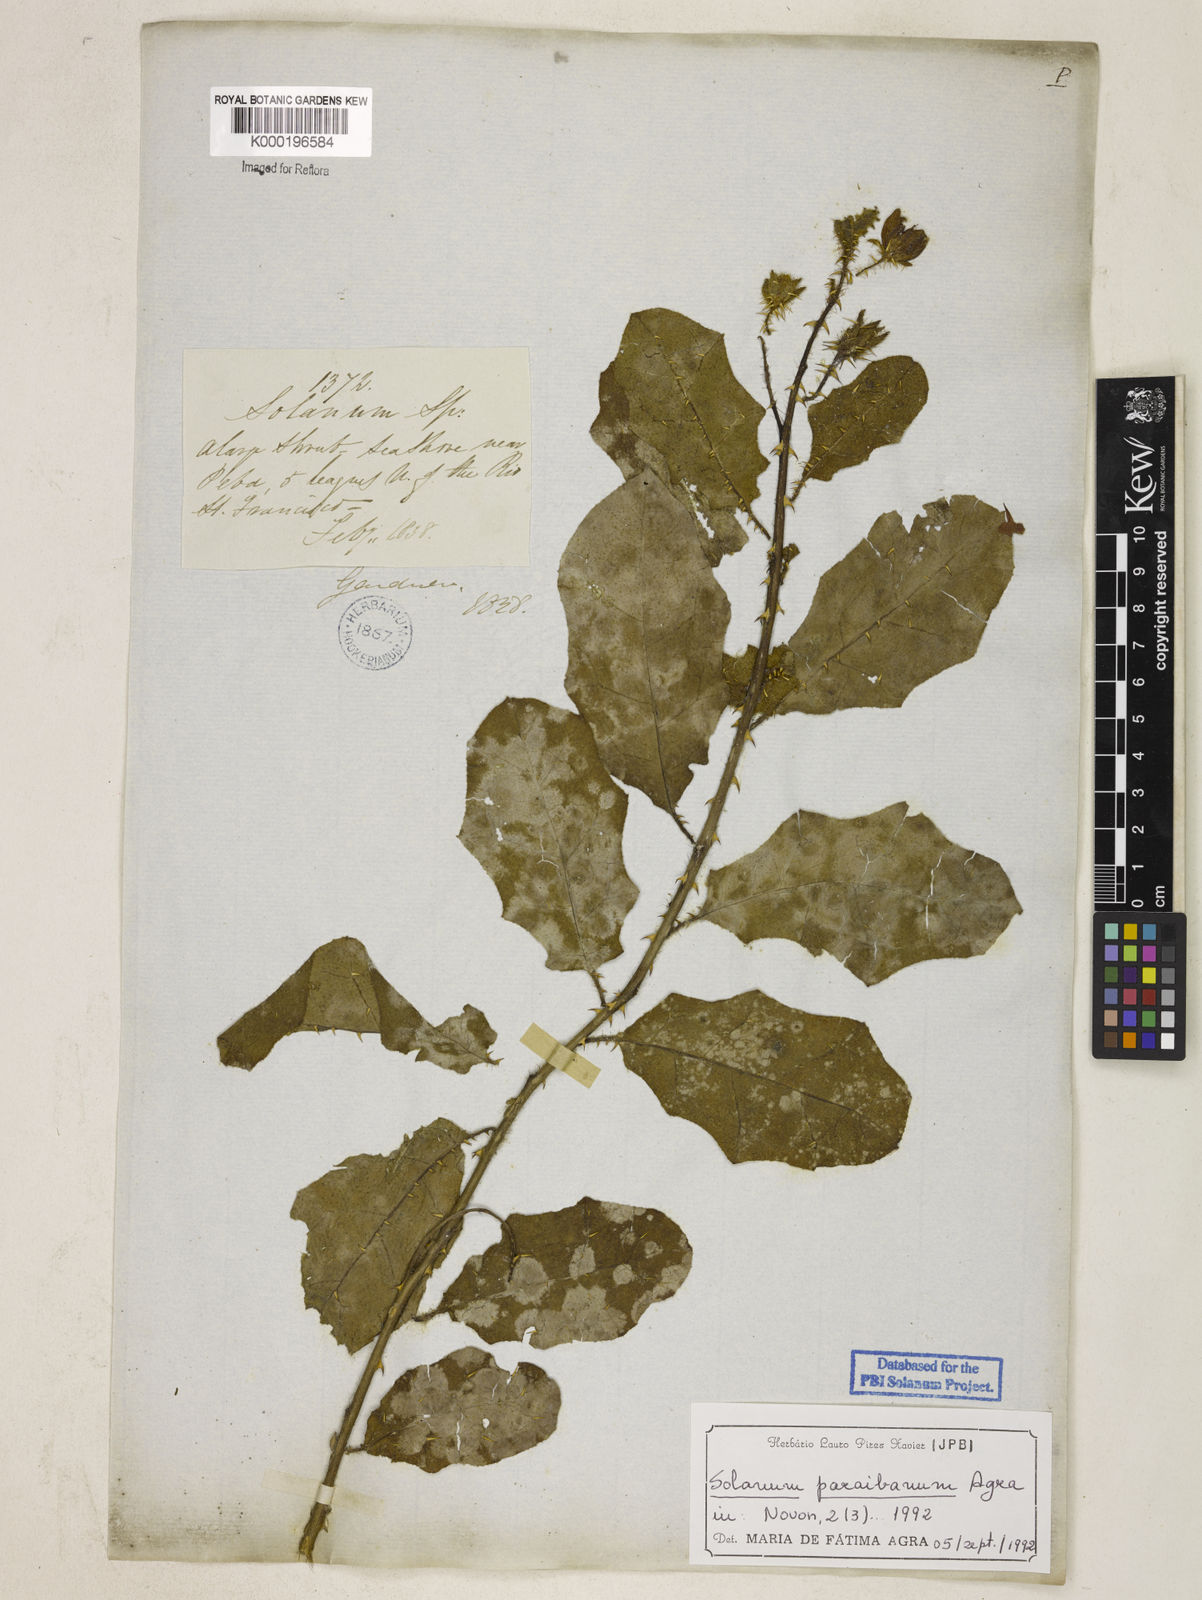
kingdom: Plantae
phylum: Tracheophyta
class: Magnoliopsida
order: Solanales
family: Solanaceae
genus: Solanum
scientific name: Solanum paraibanum
